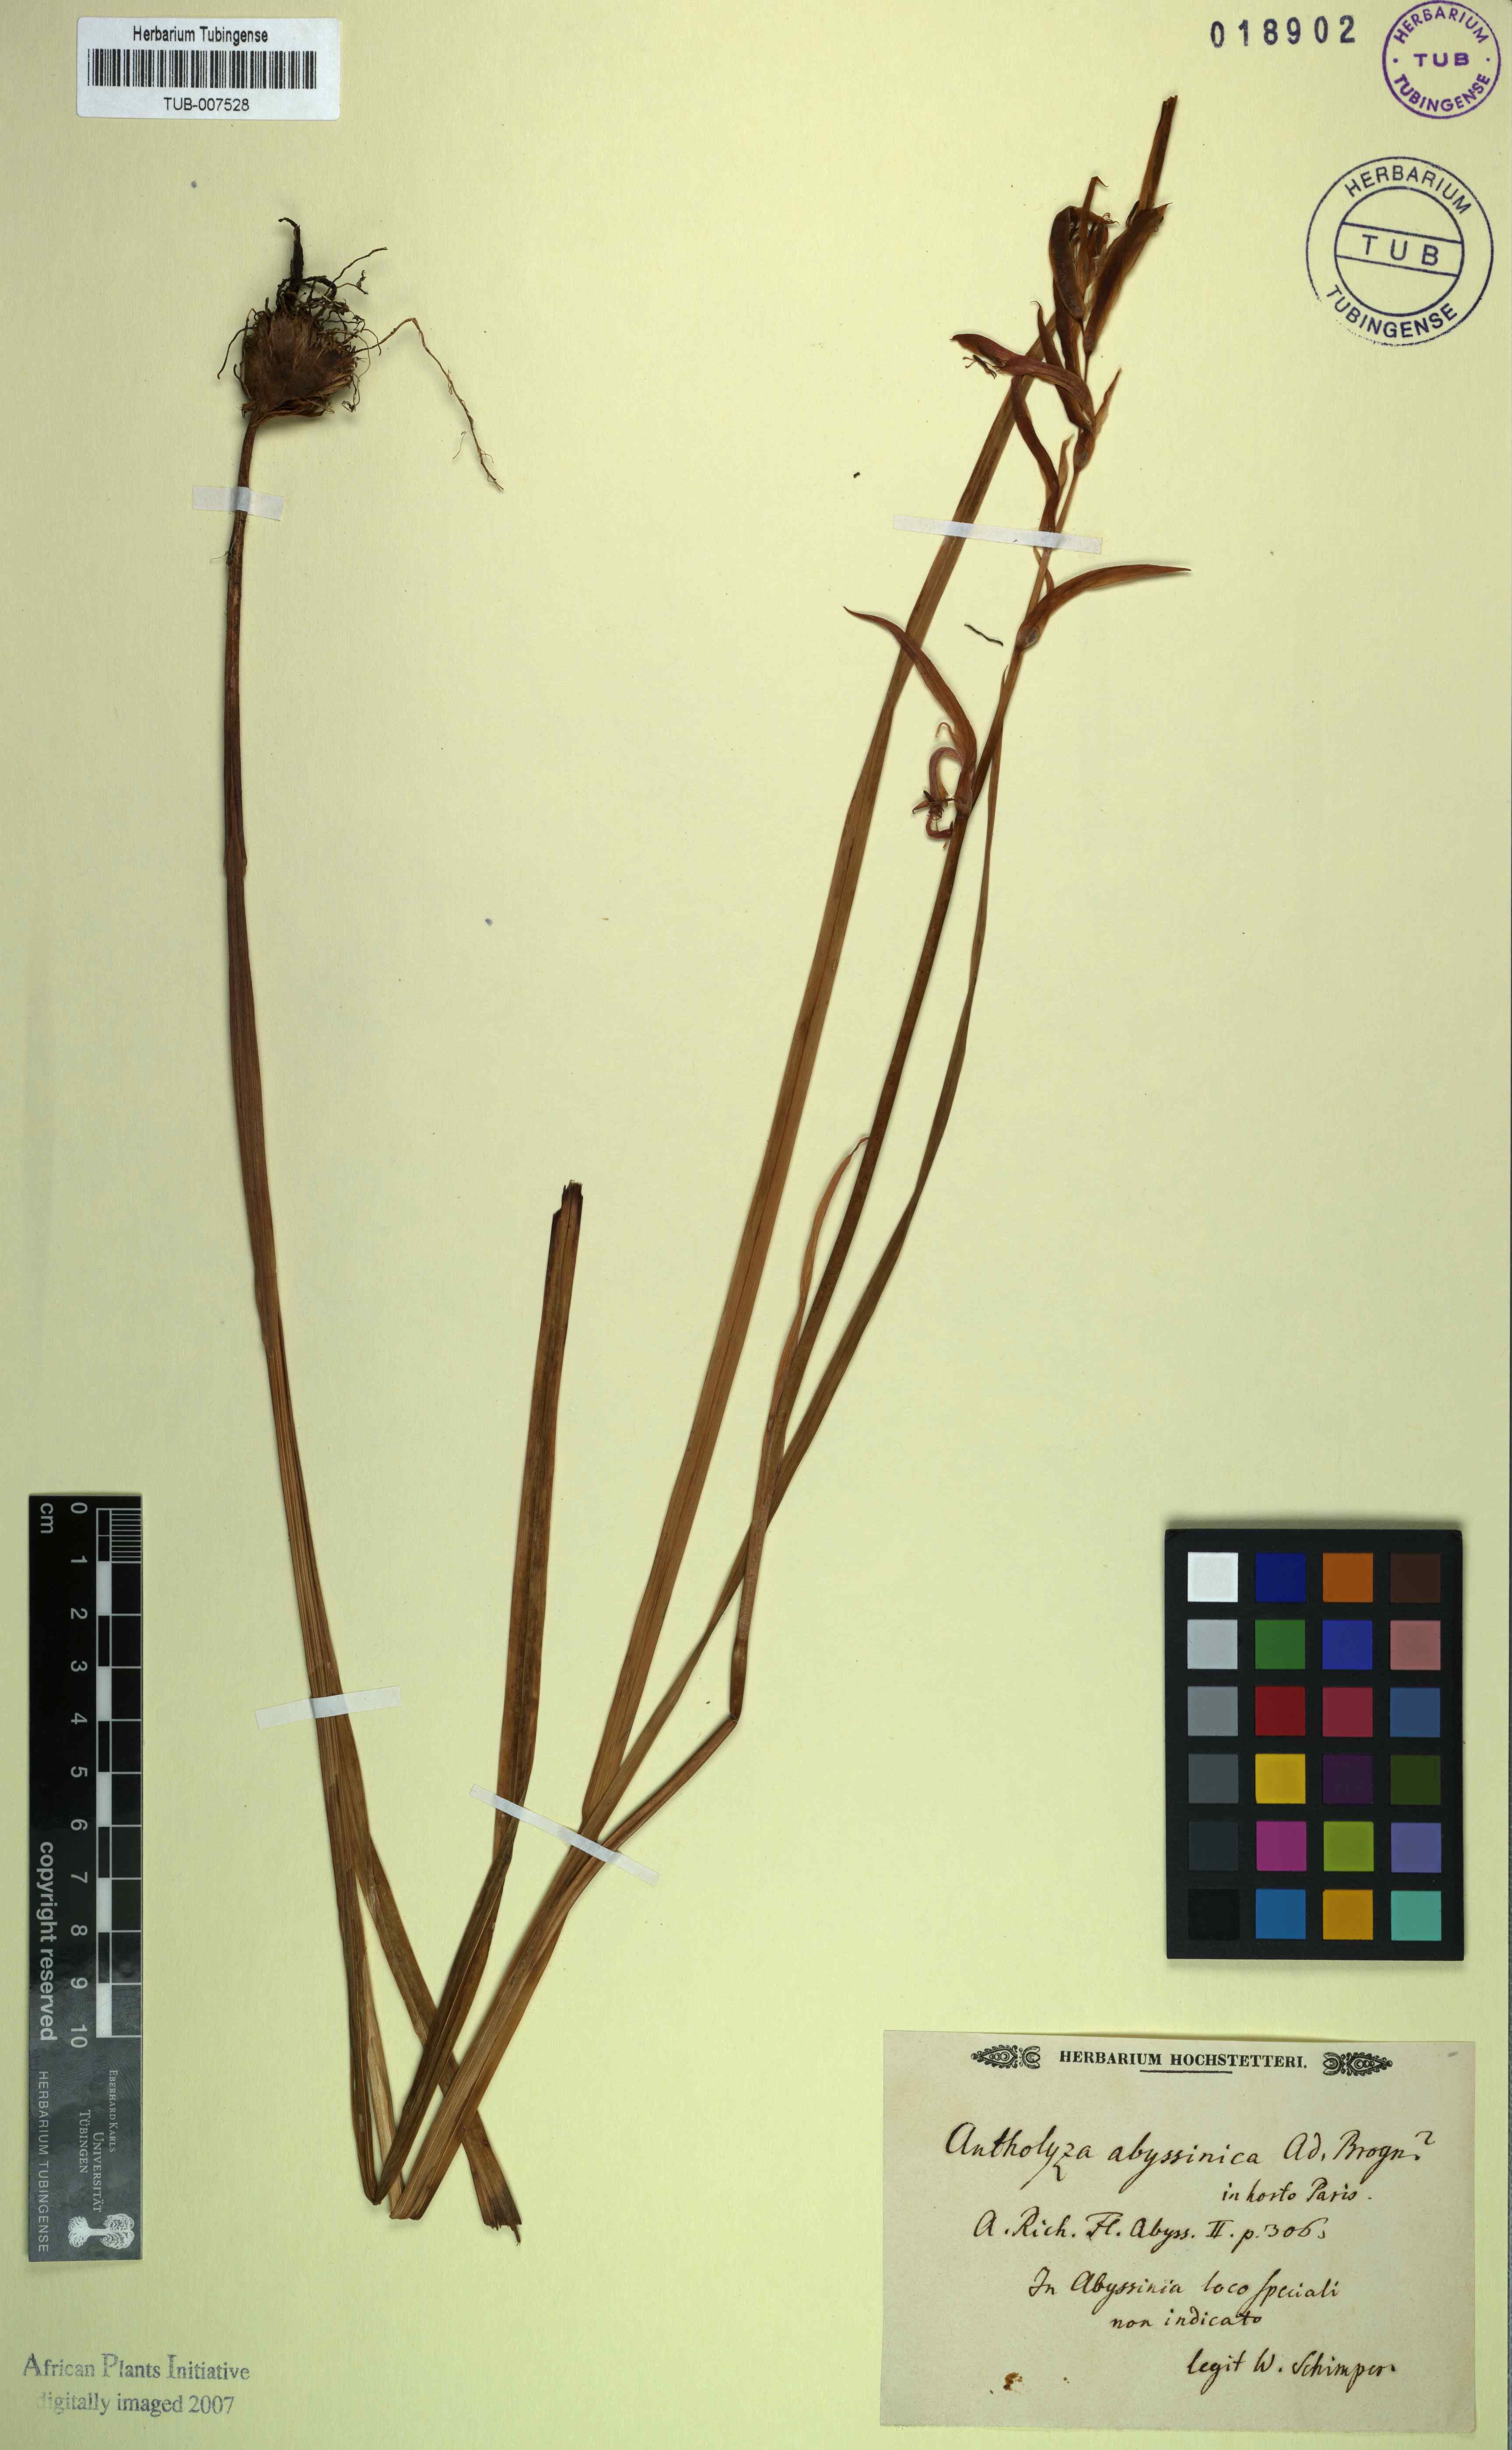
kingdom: Plantae
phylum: Tracheophyta
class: Liliopsida
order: Asparagales
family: Iridaceae
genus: Gladiolus
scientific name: Gladiolus abyssinicus
